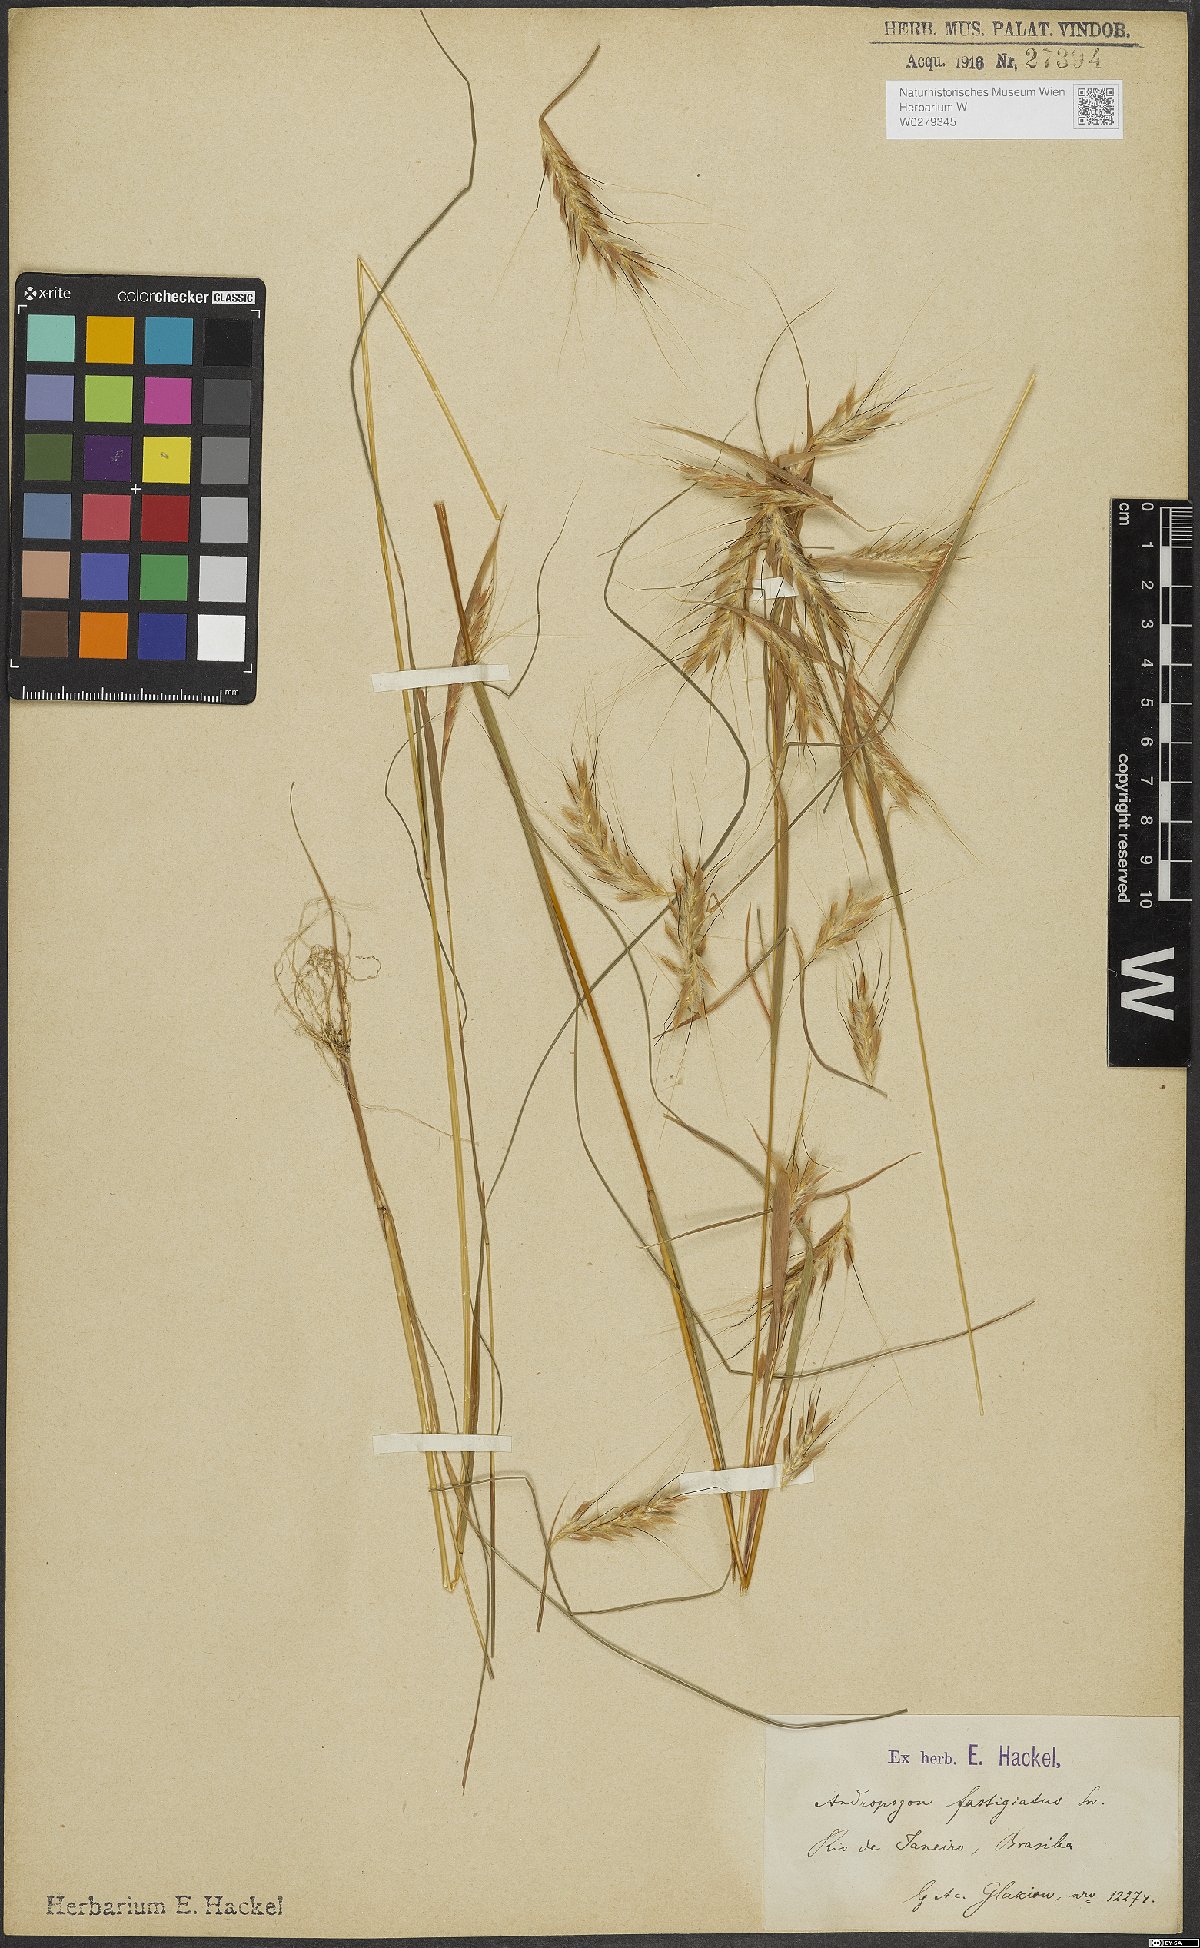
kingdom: Plantae
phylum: Tracheophyta
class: Liliopsida
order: Poales
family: Poaceae
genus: Diectomis
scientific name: Diectomis fastigiata
